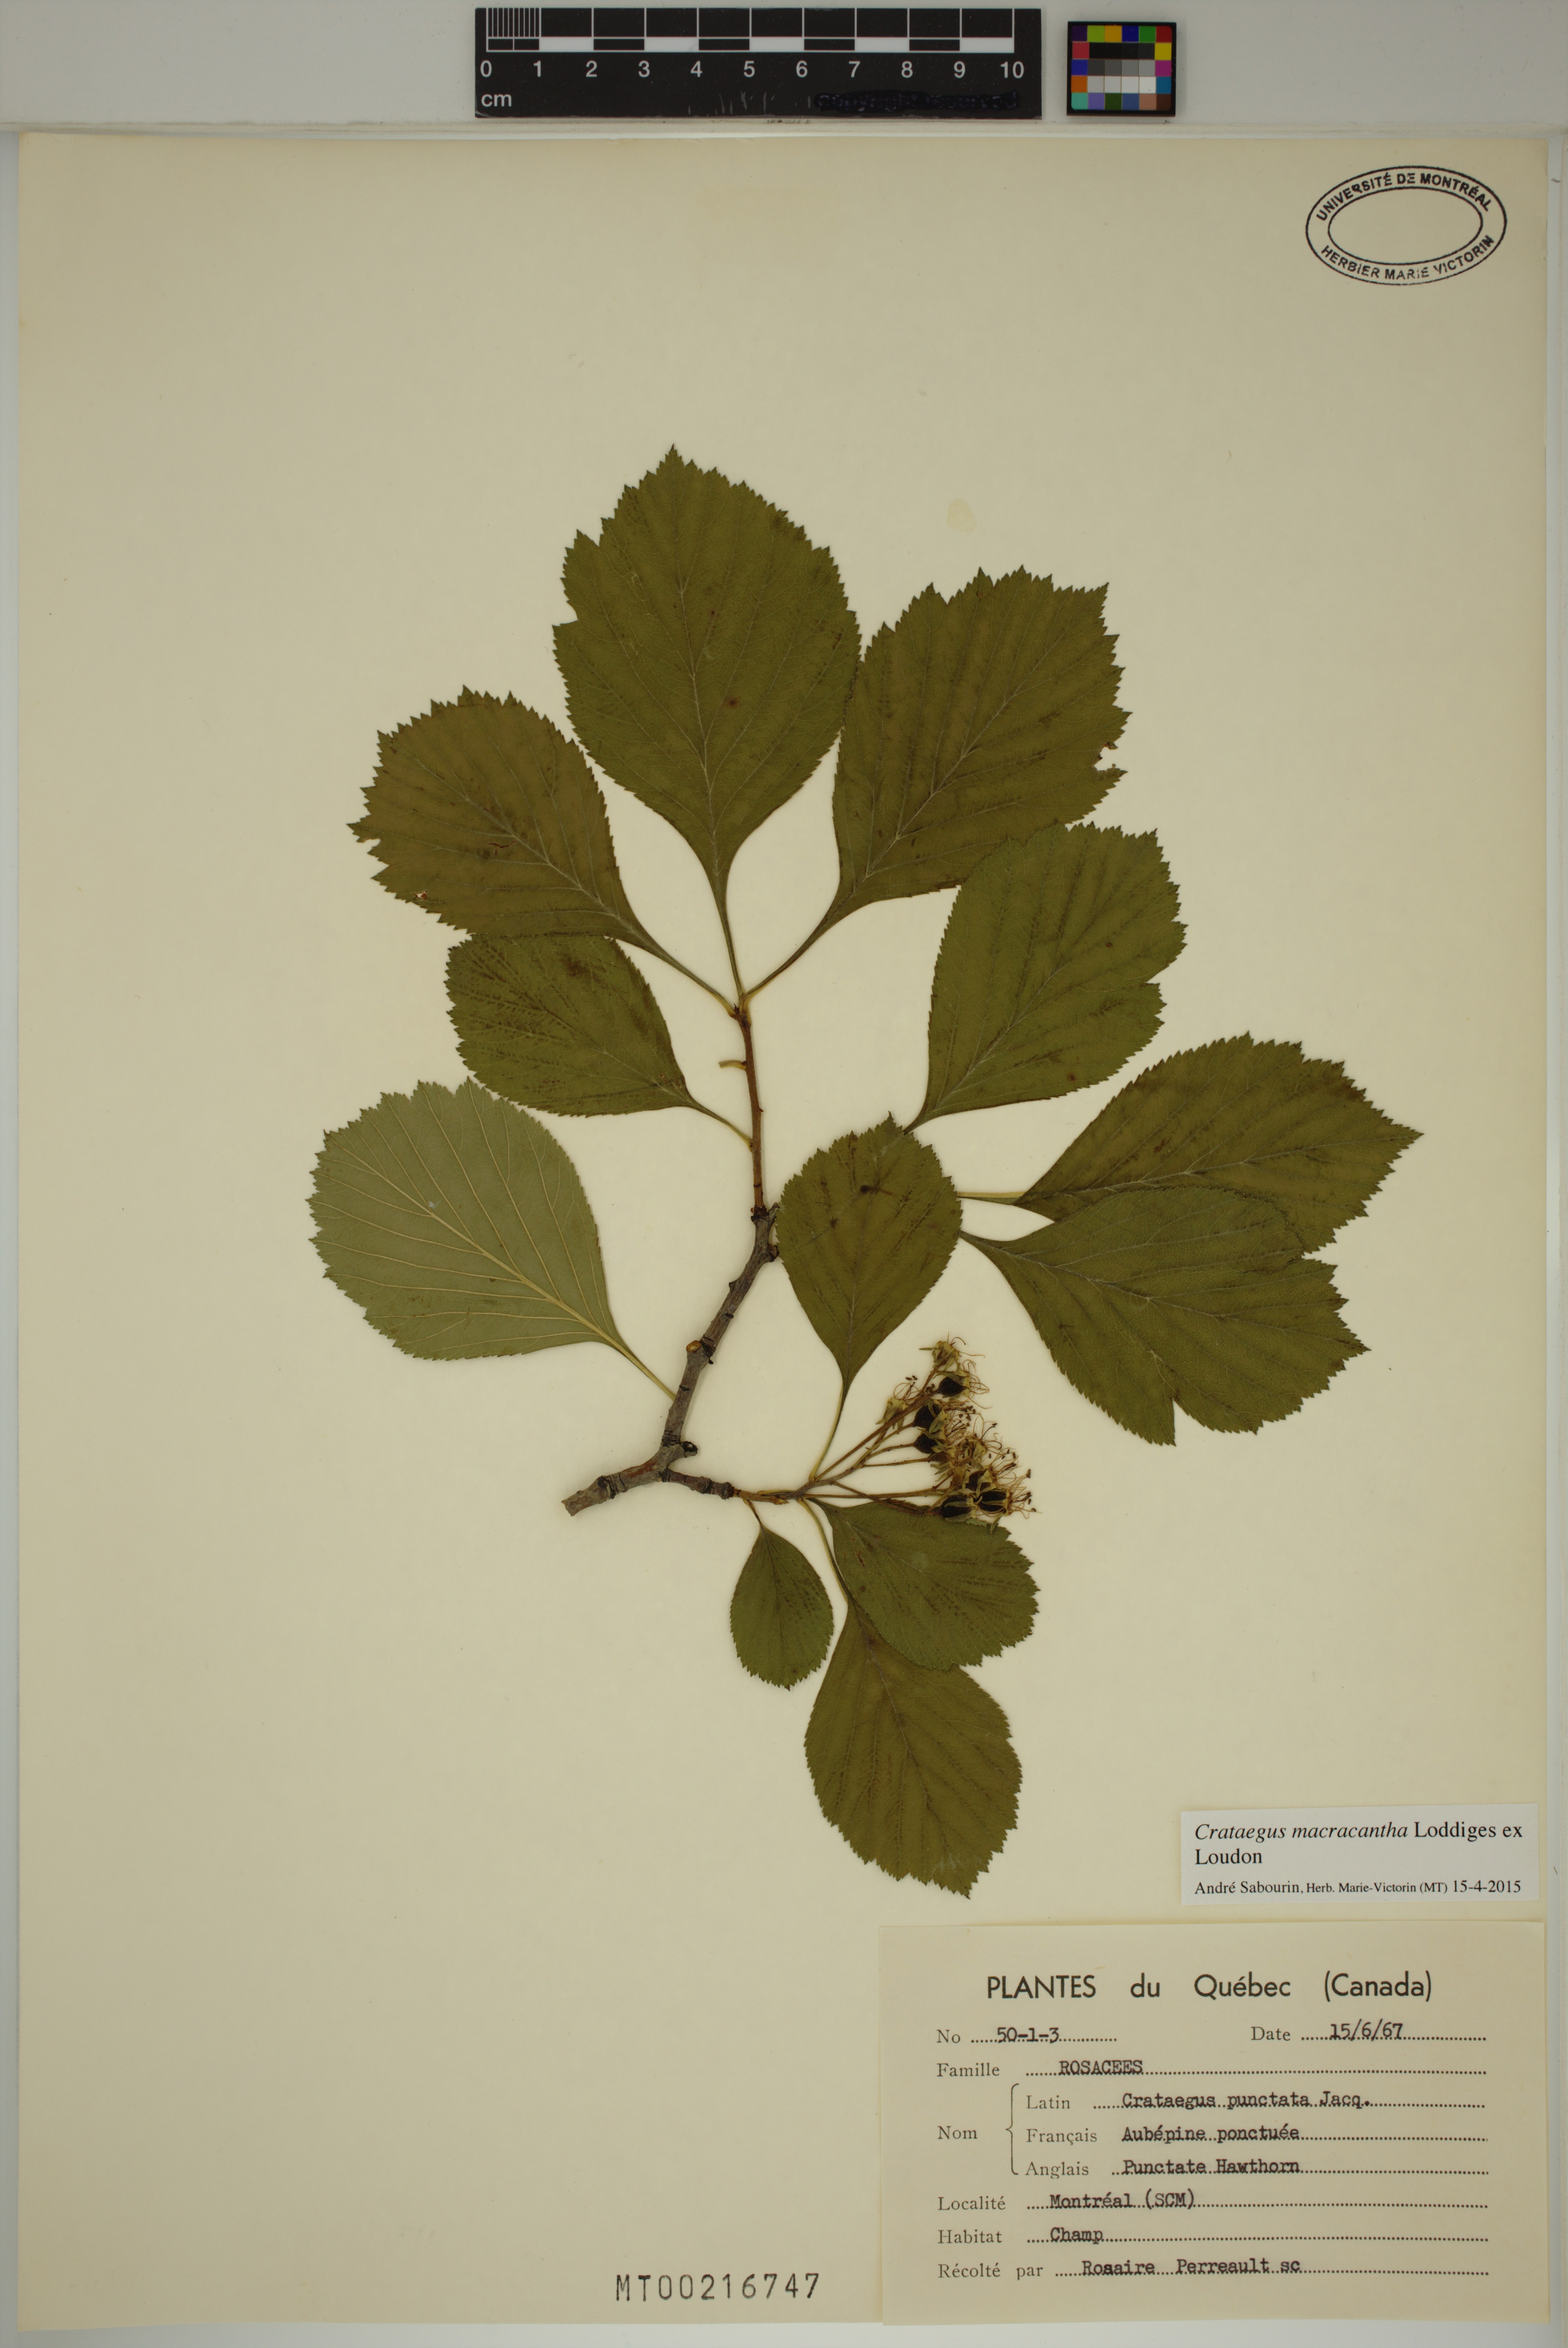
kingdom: Plantae
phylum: Tracheophyta
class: Magnoliopsida
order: Rosales
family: Rosaceae
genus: Crataegus
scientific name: Crataegus macracantha
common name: Large-thorn hawthorn
